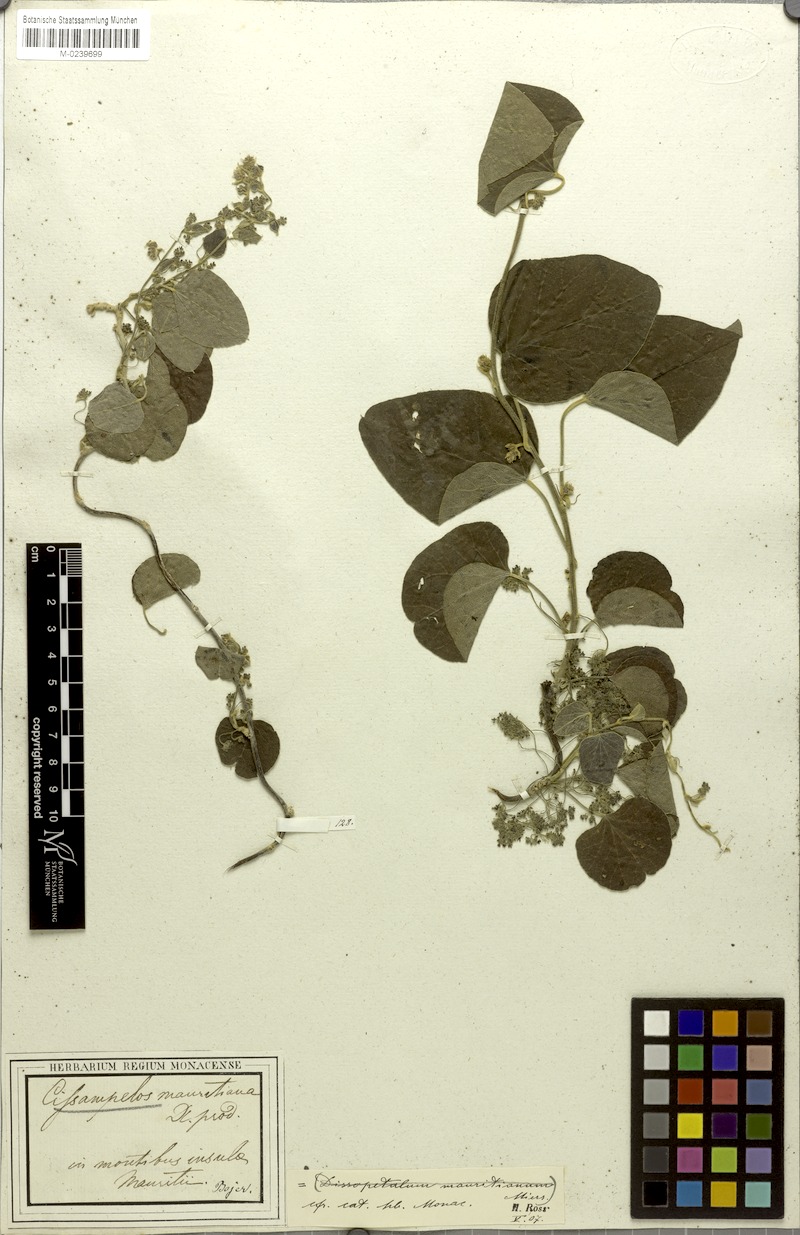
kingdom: Plantae
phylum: Tracheophyta
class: Magnoliopsida
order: Ranunculales
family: Menispermaceae
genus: Cissampelos
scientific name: Cissampelos pareira
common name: Velvetleaf
